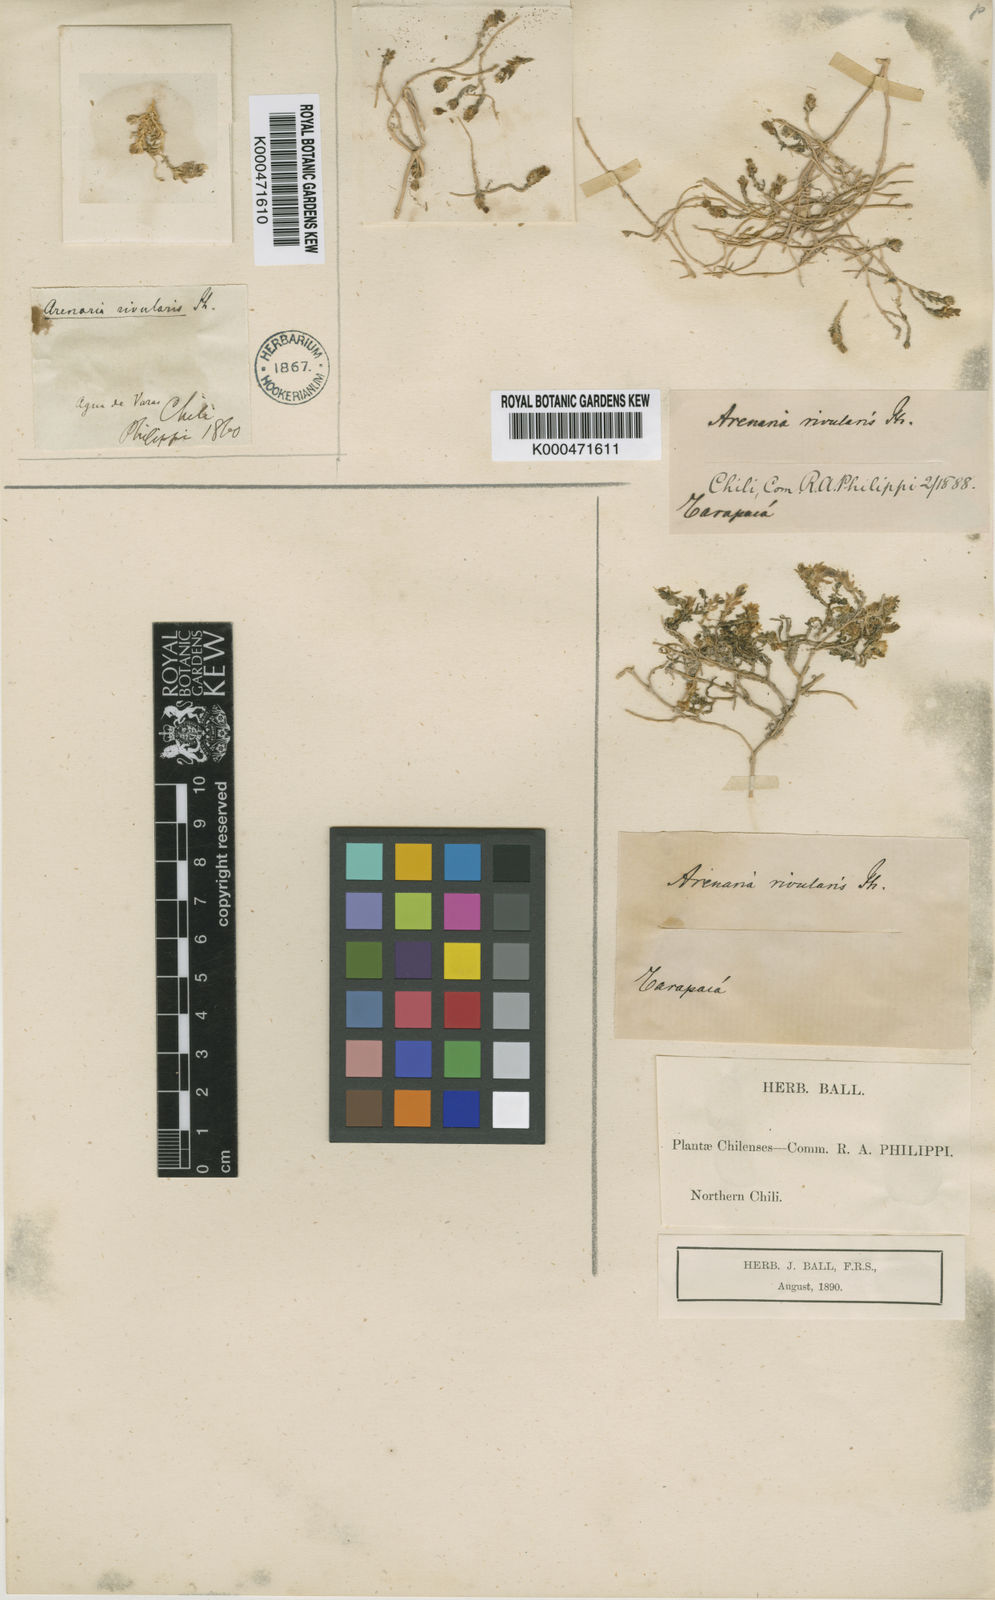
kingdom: Plantae
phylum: Tracheophyta
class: Magnoliopsida
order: Caryophyllales
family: Caryophyllaceae
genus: Arenaria
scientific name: Arenaria rivularis
